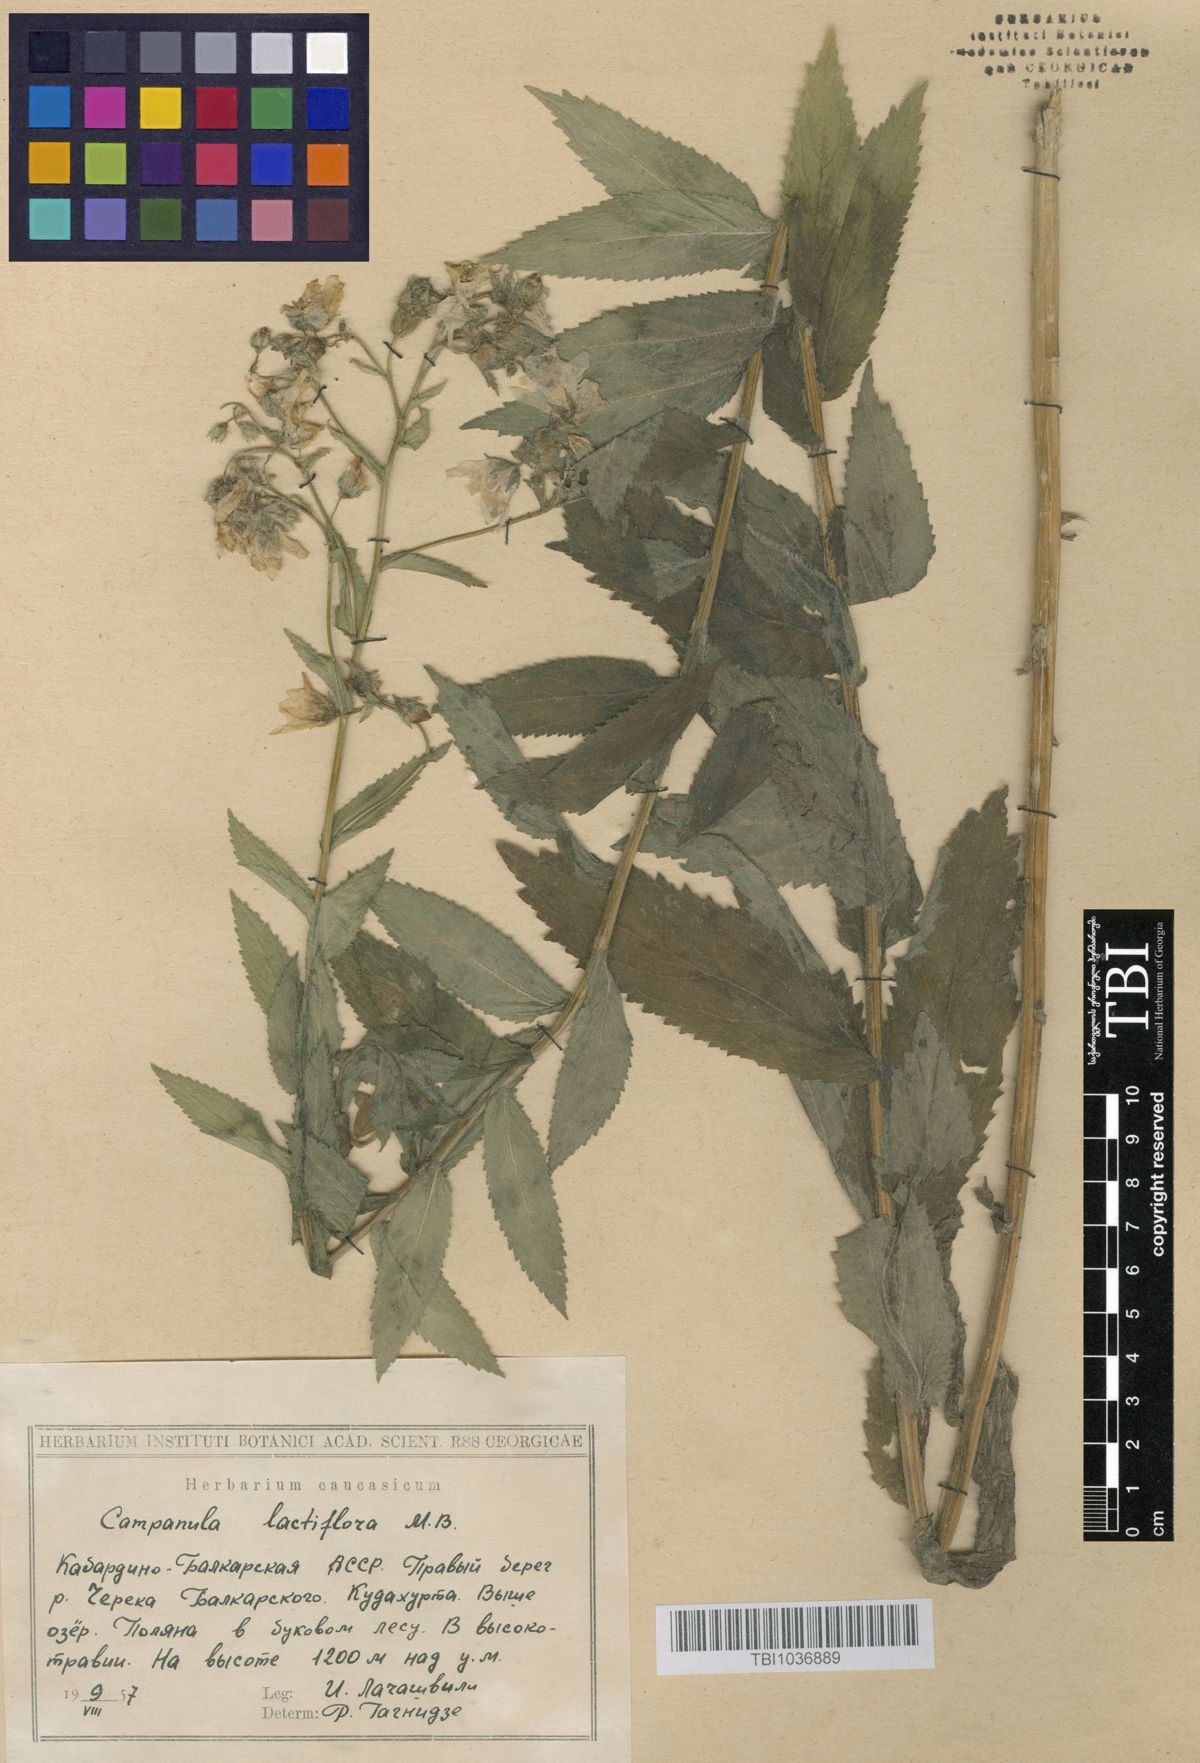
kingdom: Plantae
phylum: Tracheophyta
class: Magnoliopsida
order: Asterales
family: Campanulaceae
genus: Campanula
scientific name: Campanula lactiflora
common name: Milky bellflower
